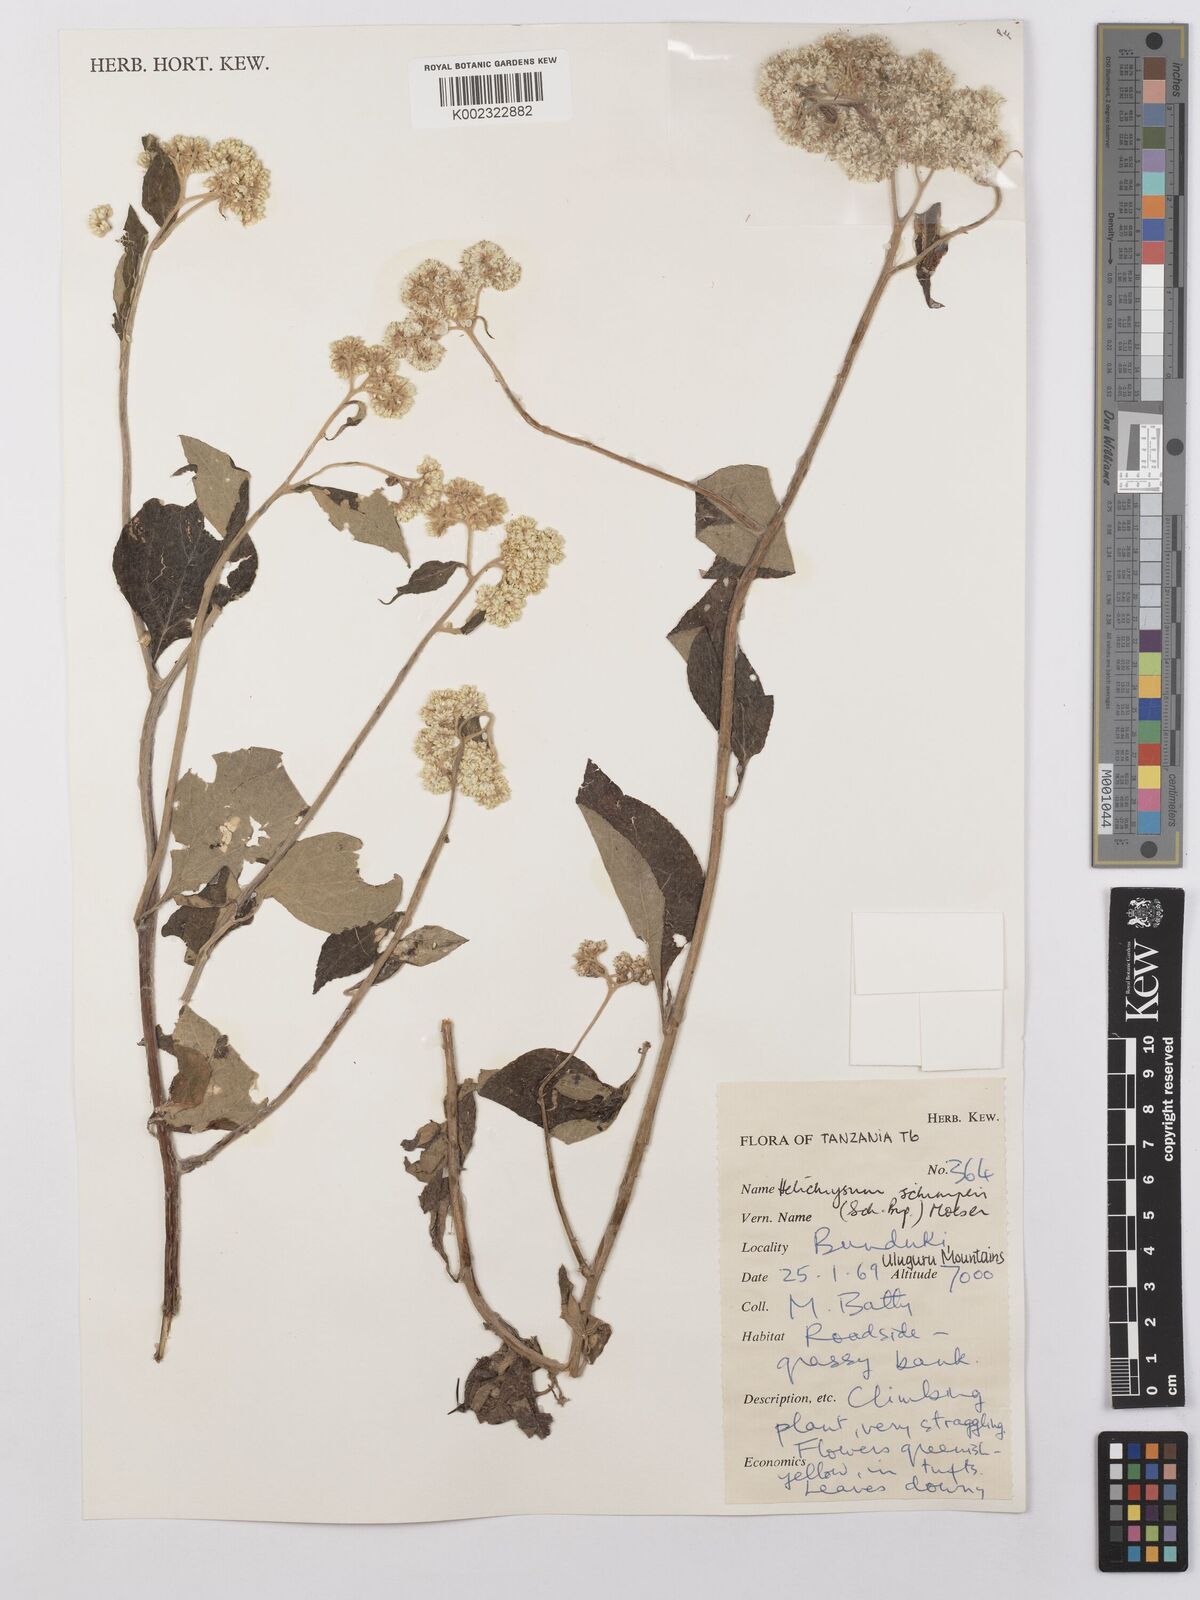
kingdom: Plantae
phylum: Tracheophyta
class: Magnoliopsida
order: Asterales
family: Asteraceae
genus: Helichrysum
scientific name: Helichrysum schimperi
